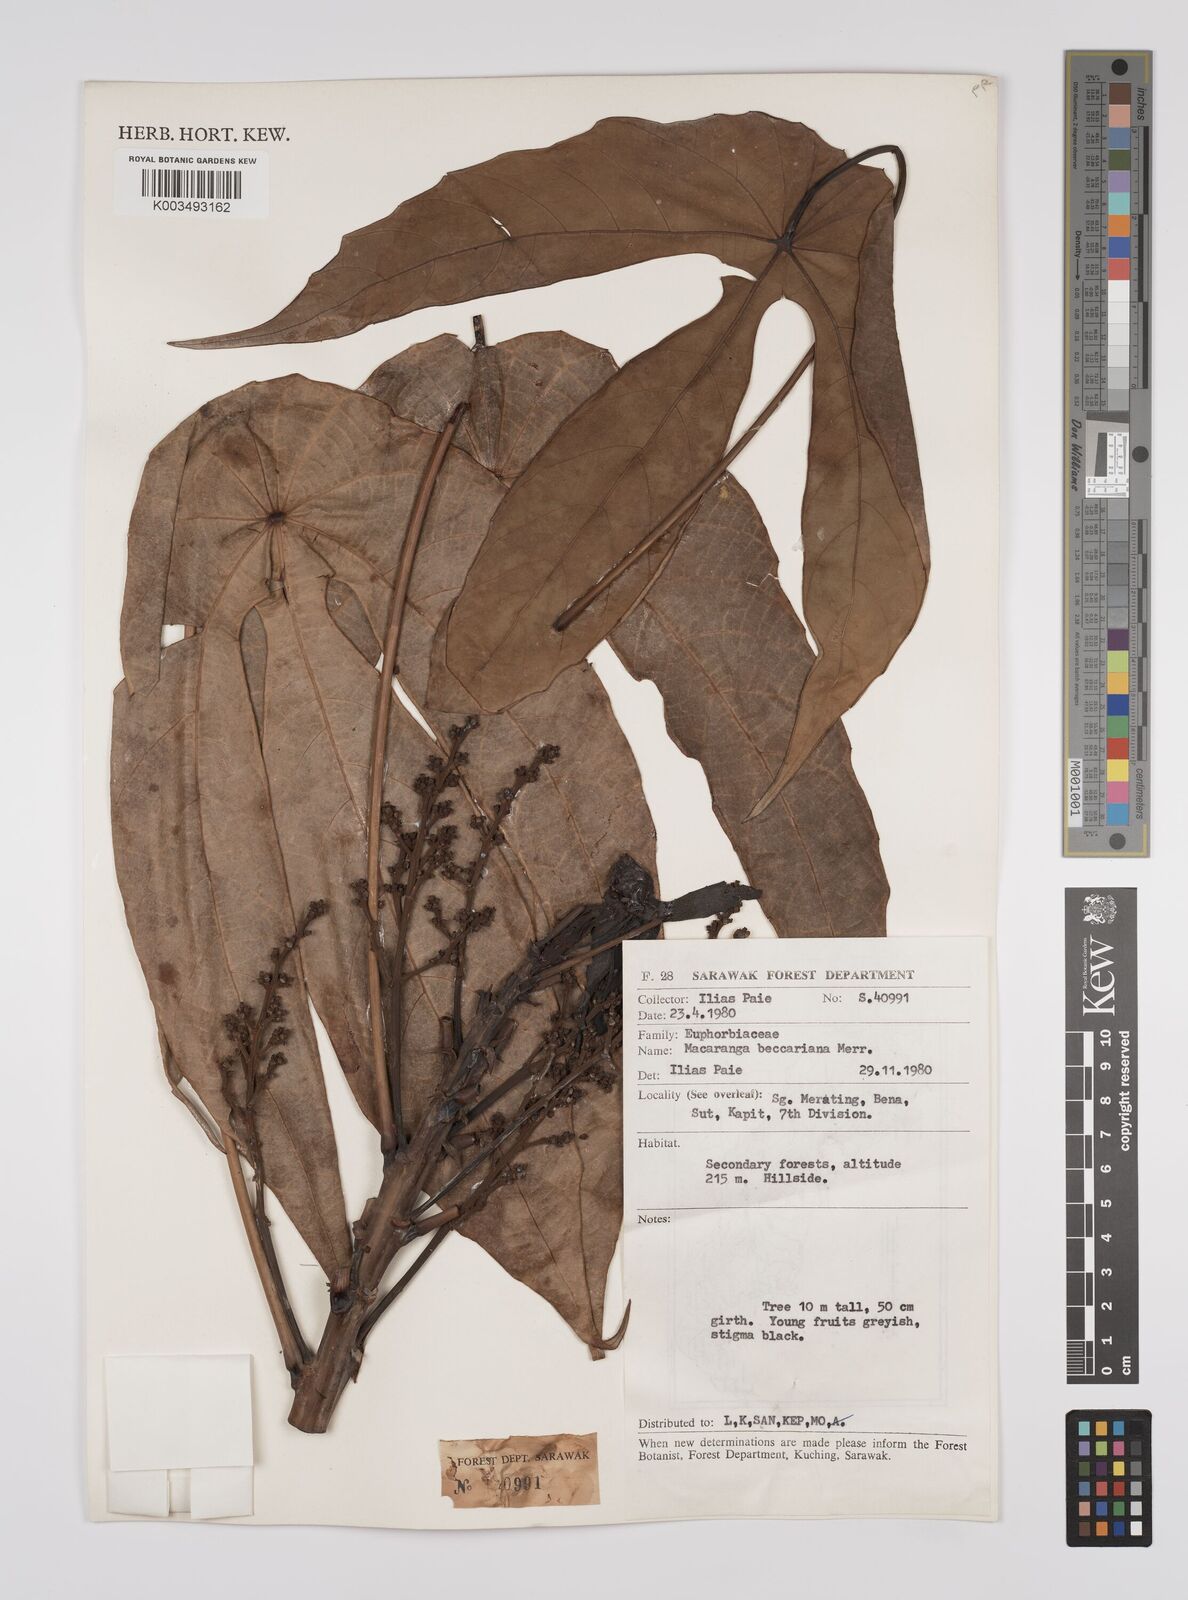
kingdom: Plantae
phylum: Tracheophyta
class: Magnoliopsida
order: Malpighiales
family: Euphorbiaceae
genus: Macaranga
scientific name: Macaranga beccariana
